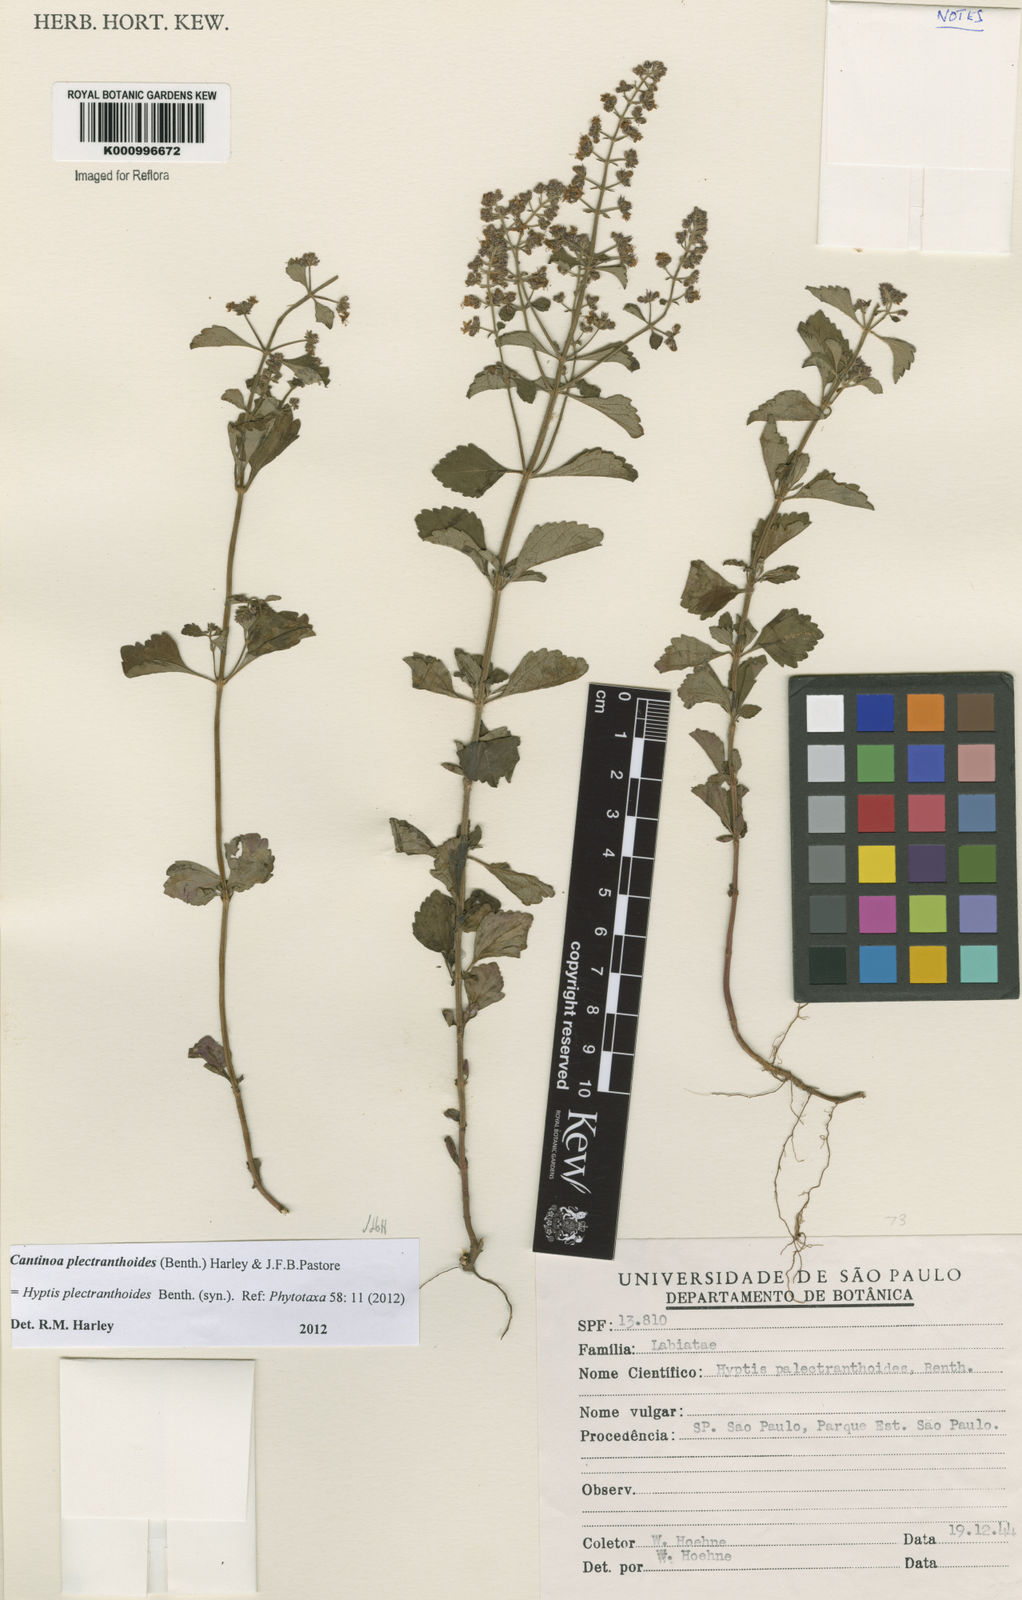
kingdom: Plantae
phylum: Tracheophyta
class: Magnoliopsida
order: Lamiales
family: Lamiaceae
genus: Cantinoa
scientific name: Cantinoa plectranthoides
